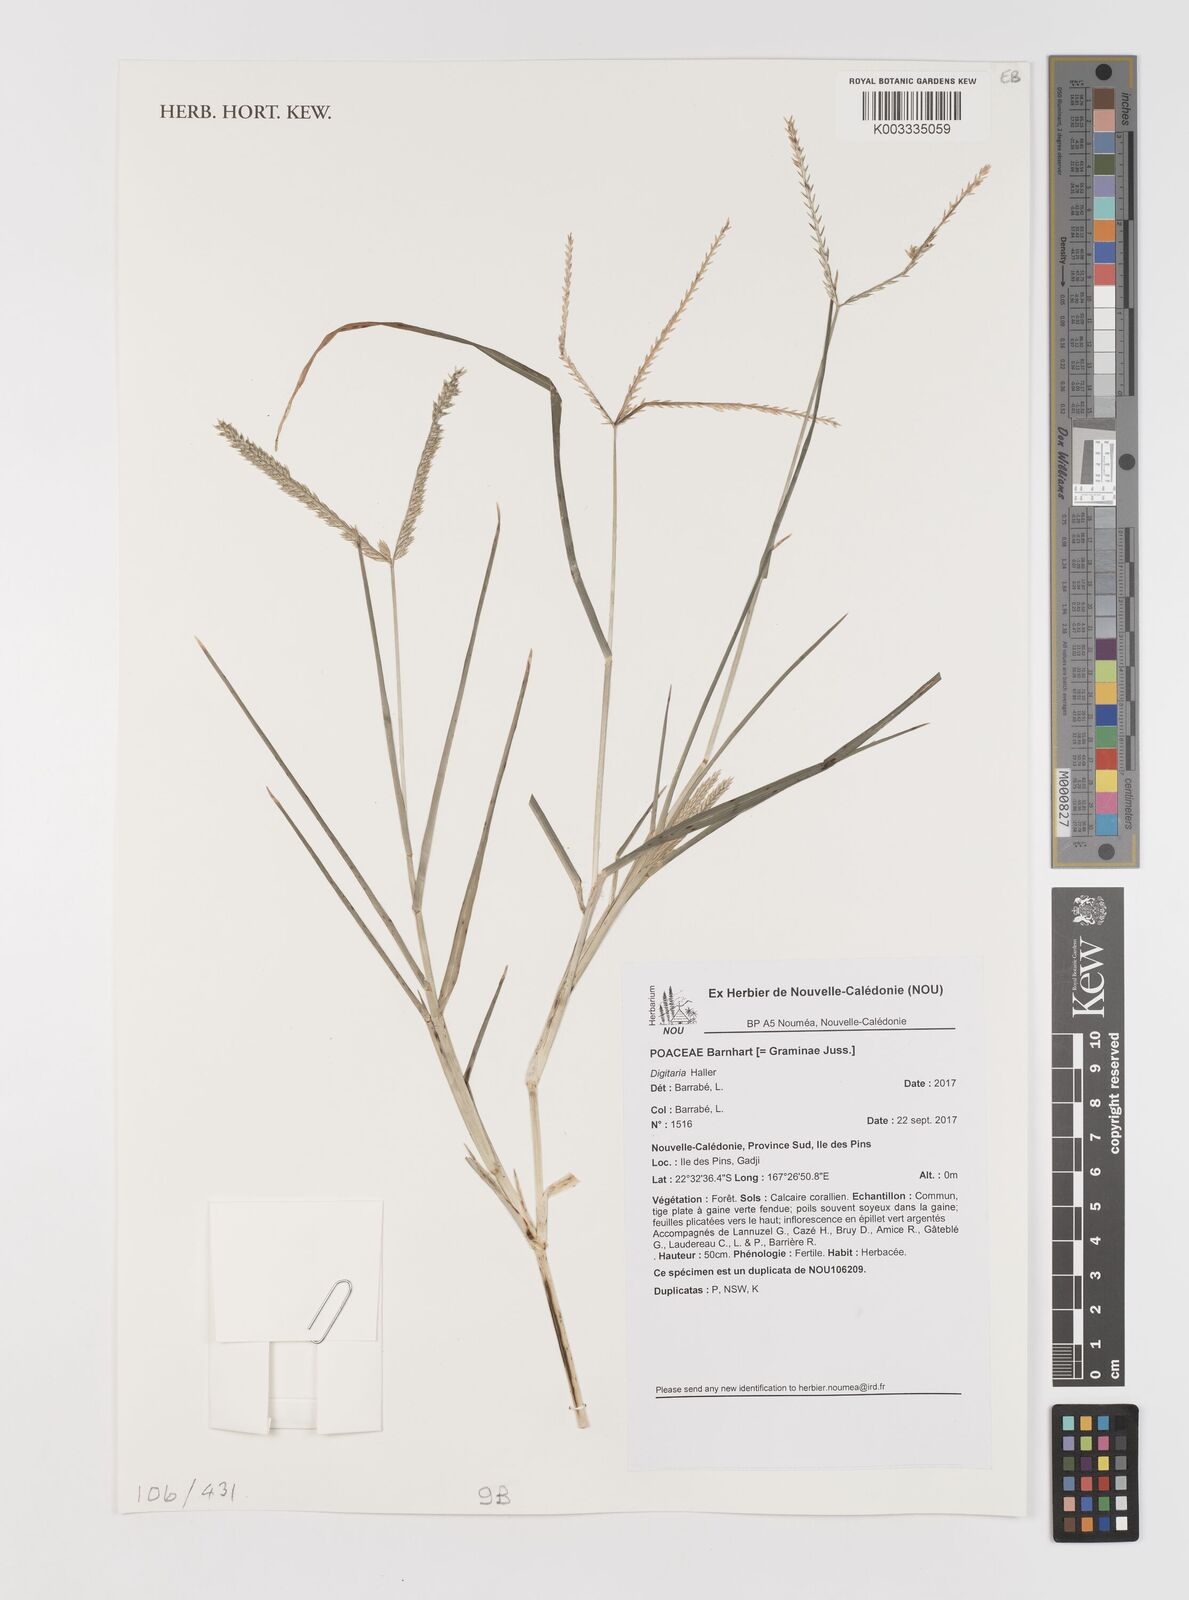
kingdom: Plantae
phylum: Tracheophyta
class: Liliopsida
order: Poales
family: Poaceae
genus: Hilaria
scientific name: Hilaria
